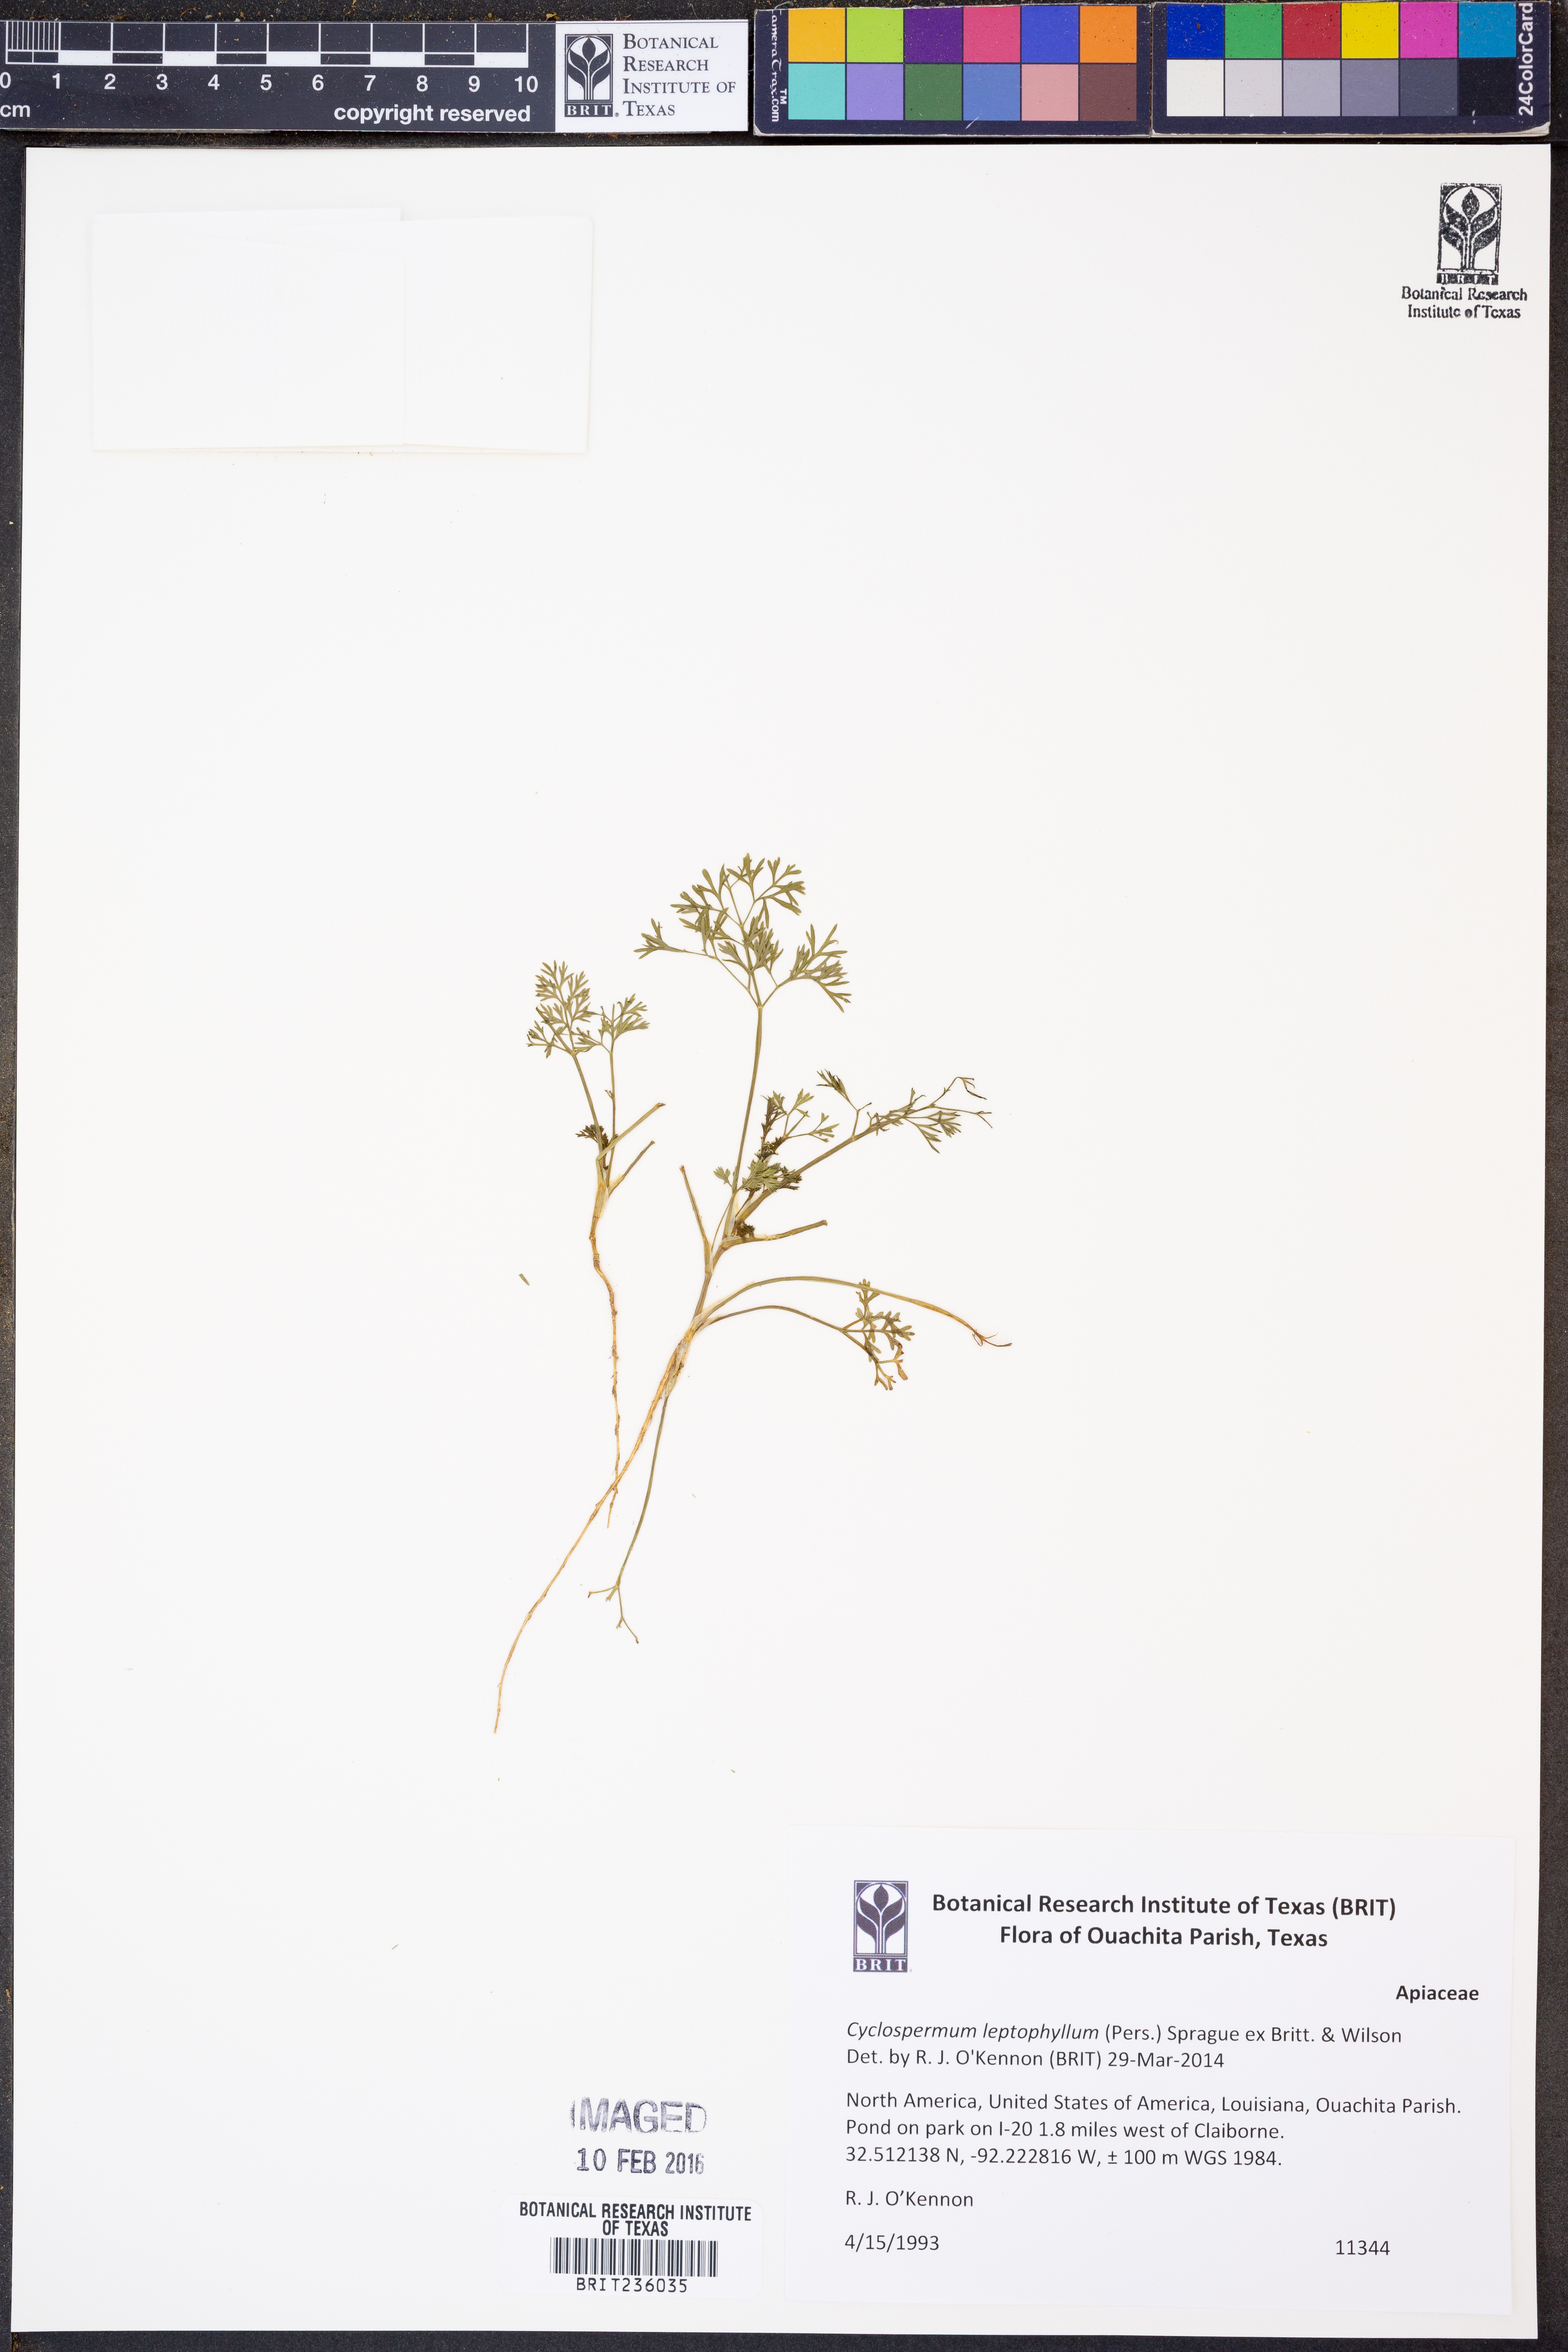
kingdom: Plantae
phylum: Tracheophyta
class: Magnoliopsida
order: Apiales
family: Apiaceae
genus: Cyclospermum
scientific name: Cyclospermum leptophyllum
